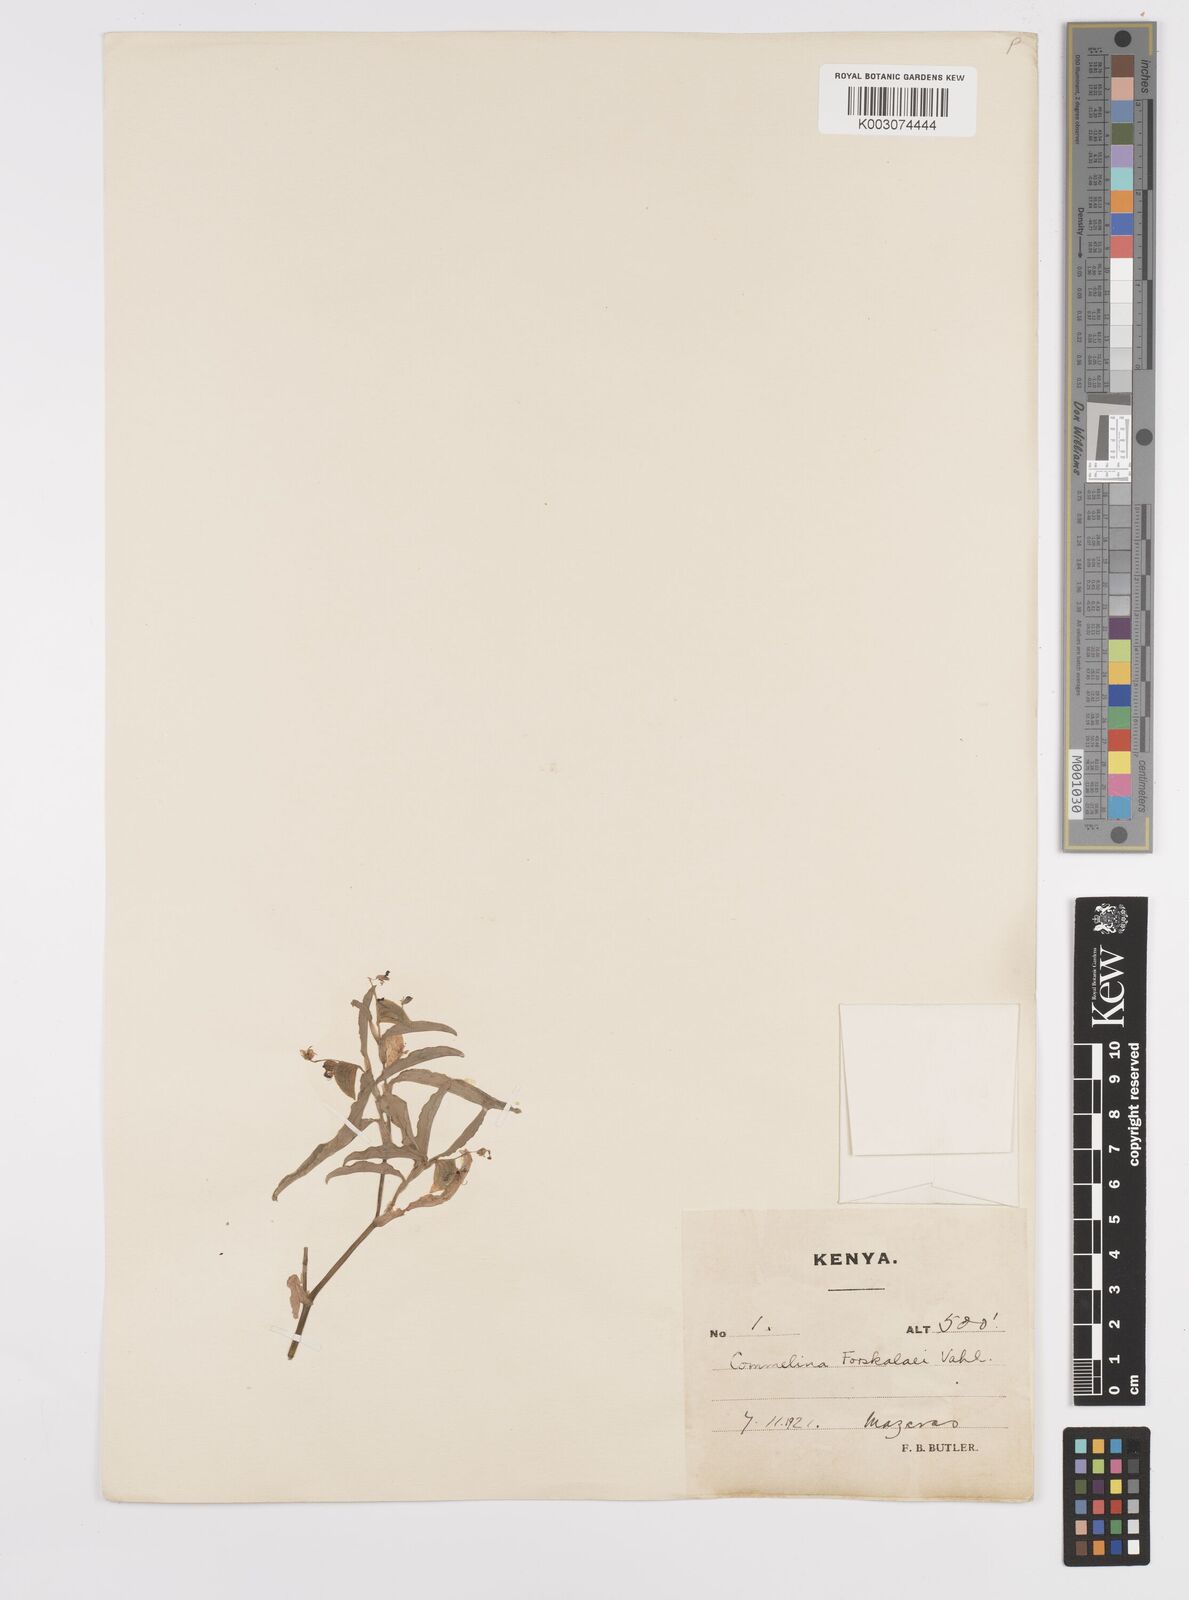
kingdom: Plantae
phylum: Tracheophyta
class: Liliopsida
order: Commelinales
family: Commelinaceae
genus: Commelina
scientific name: Commelina
